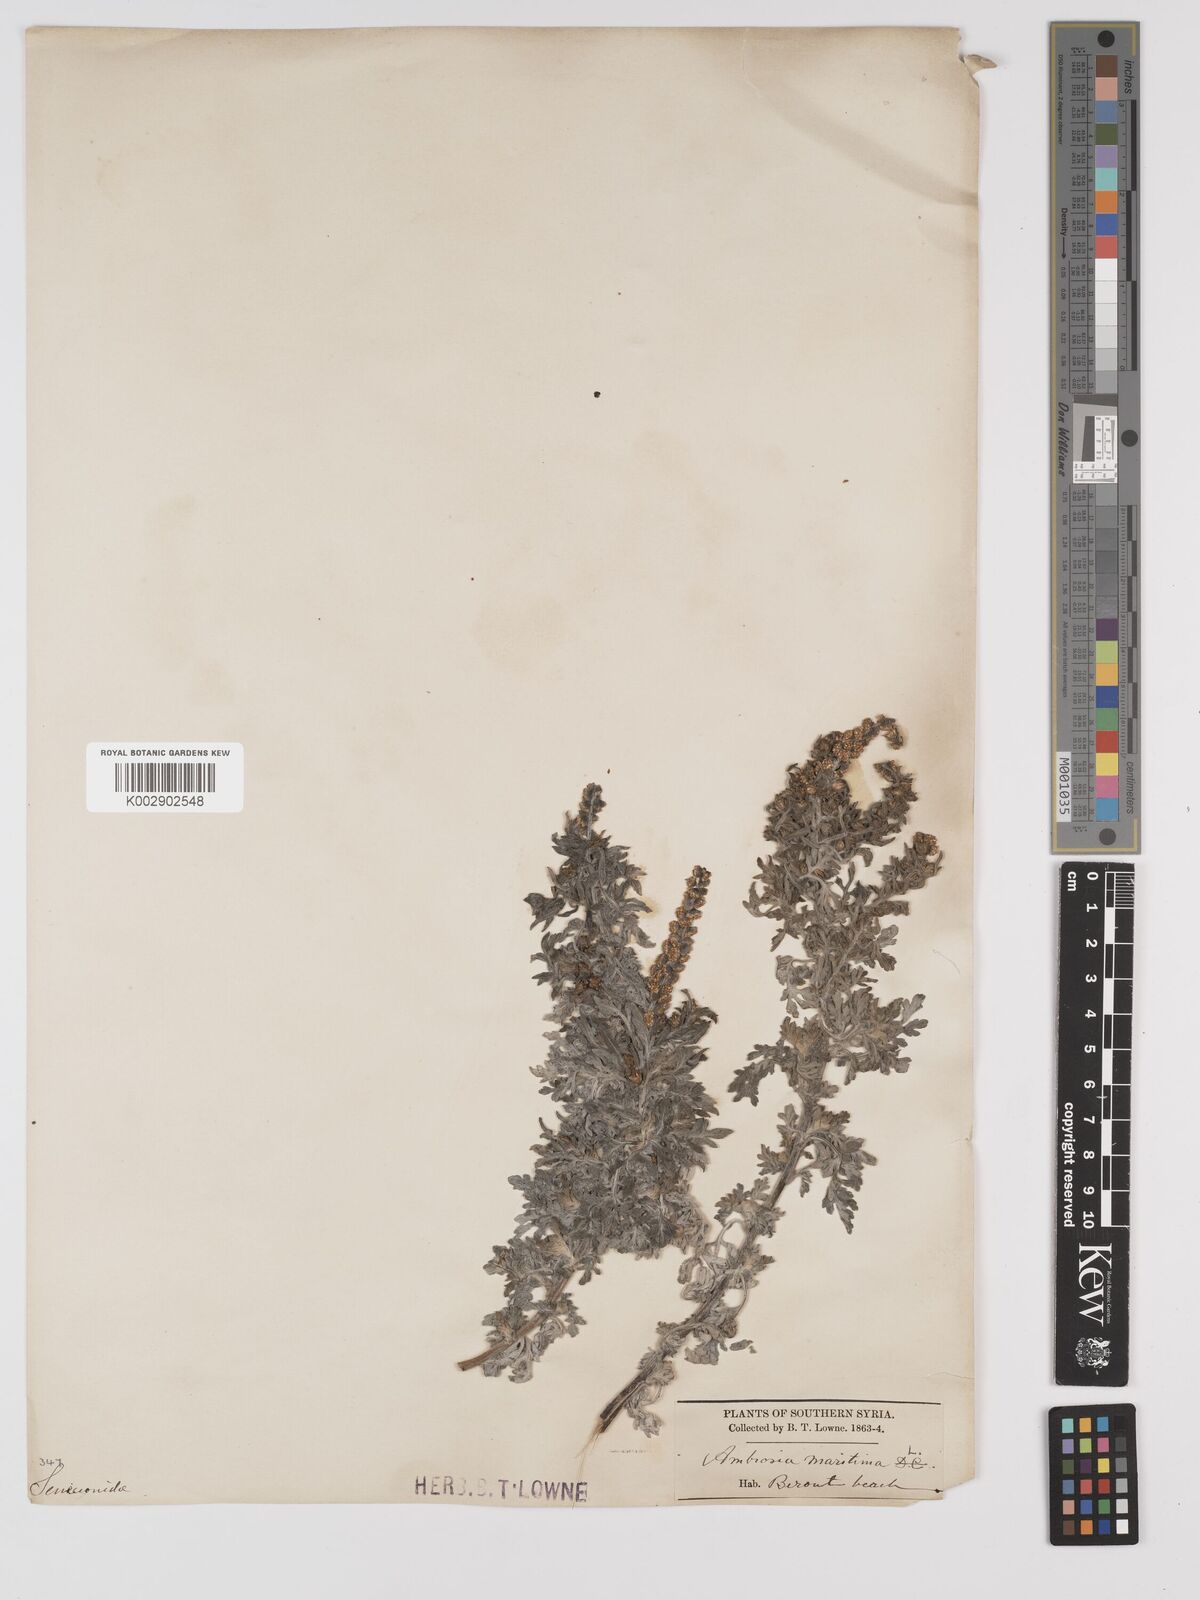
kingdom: Plantae
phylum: Tracheophyta
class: Magnoliopsida
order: Asterales
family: Asteraceae
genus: Ambrosia
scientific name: Ambrosia maritima
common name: Sea ambrosia
